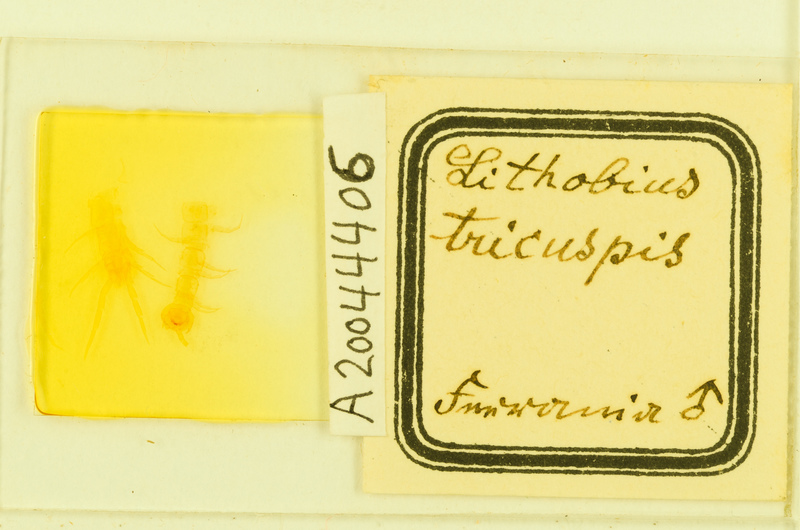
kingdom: Animalia
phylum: Arthropoda
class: Chilopoda
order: Lithobiomorpha
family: Lithobiidae
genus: Lithobius
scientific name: Lithobius tricuspis
